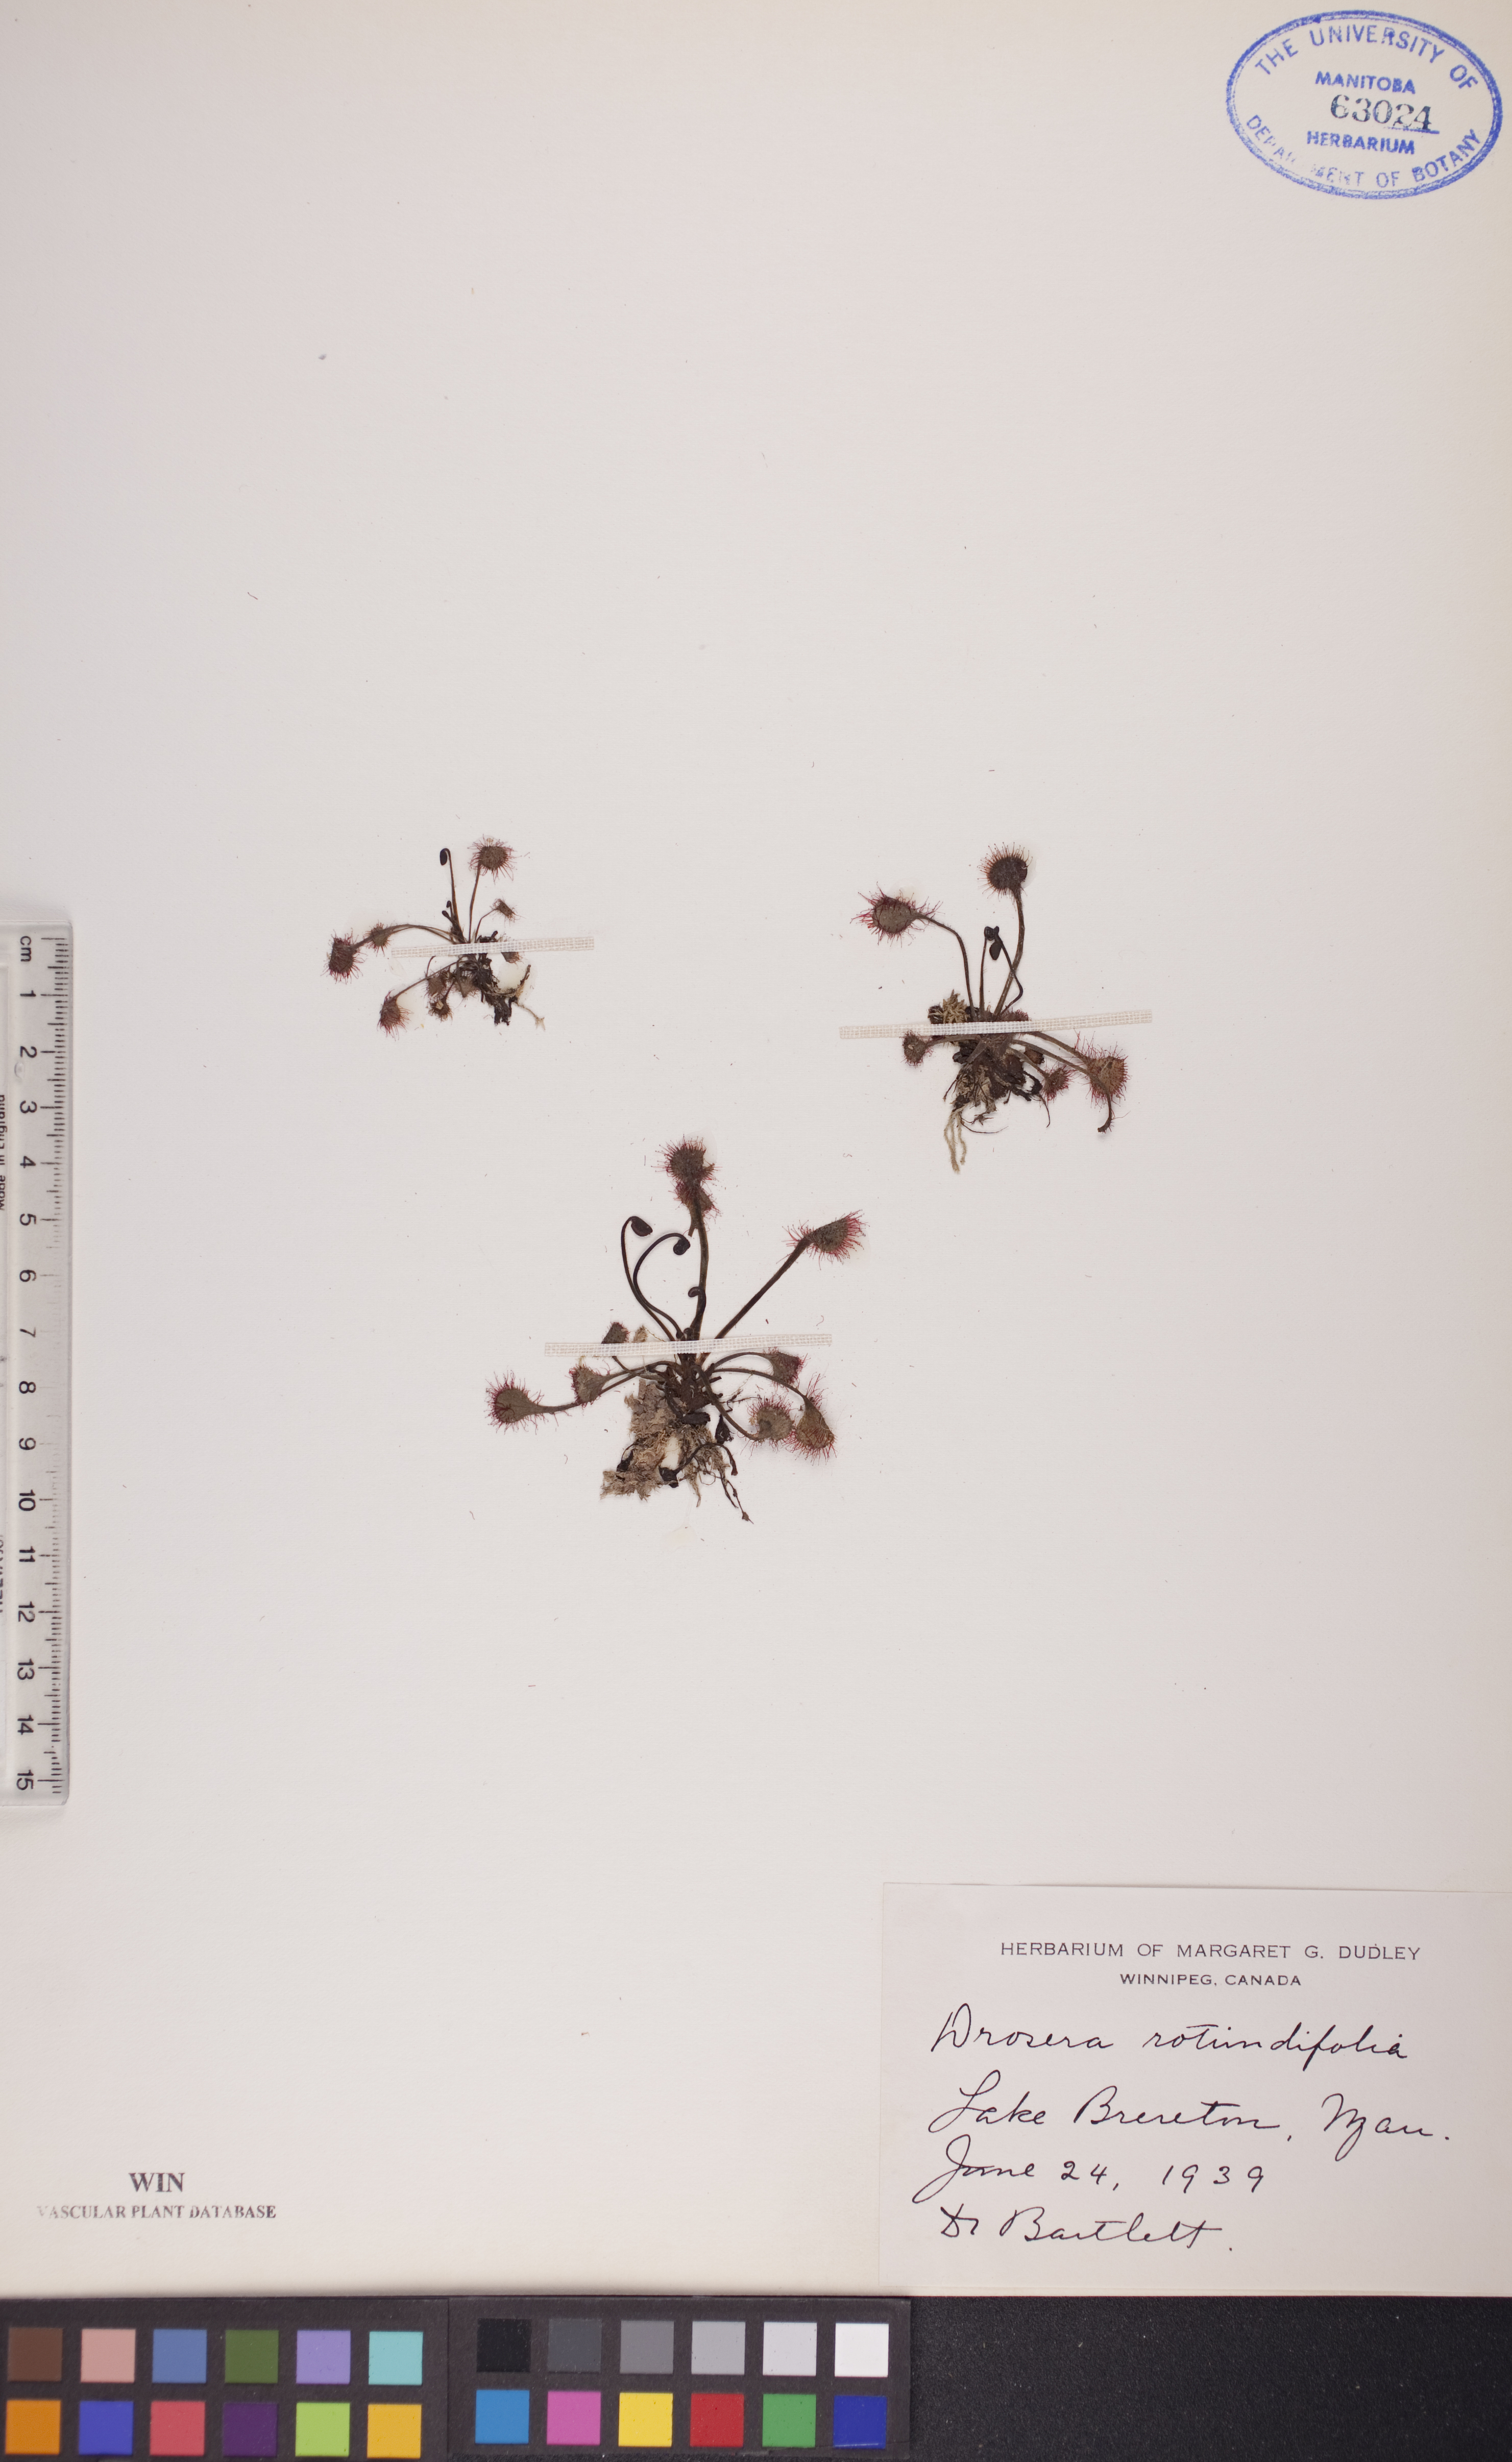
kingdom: Plantae
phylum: Tracheophyta
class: Magnoliopsida
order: Caryophyllales
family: Droseraceae
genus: Drosera
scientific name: Drosera rotundifolia
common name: Round-leaved sundew
